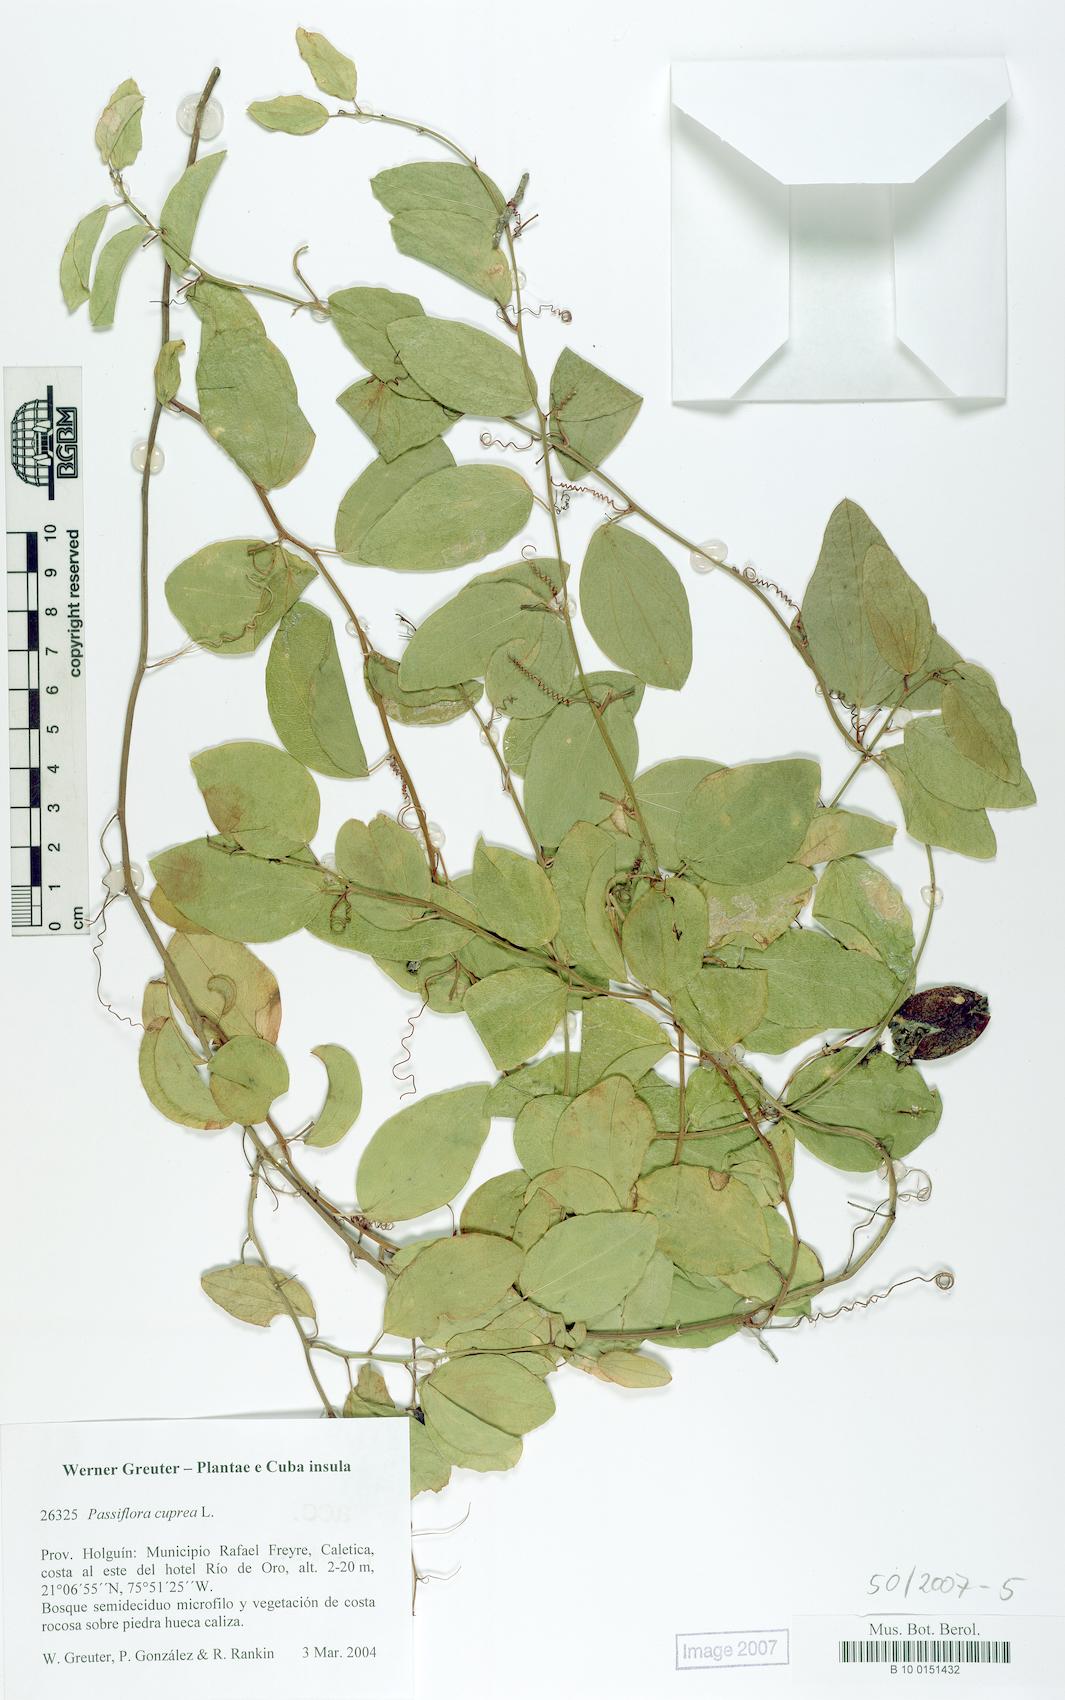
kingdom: Plantae
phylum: Tracheophyta
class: Magnoliopsida
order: Malpighiales
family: Passifloraceae
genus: Passiflora
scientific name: Passiflora cuprea
